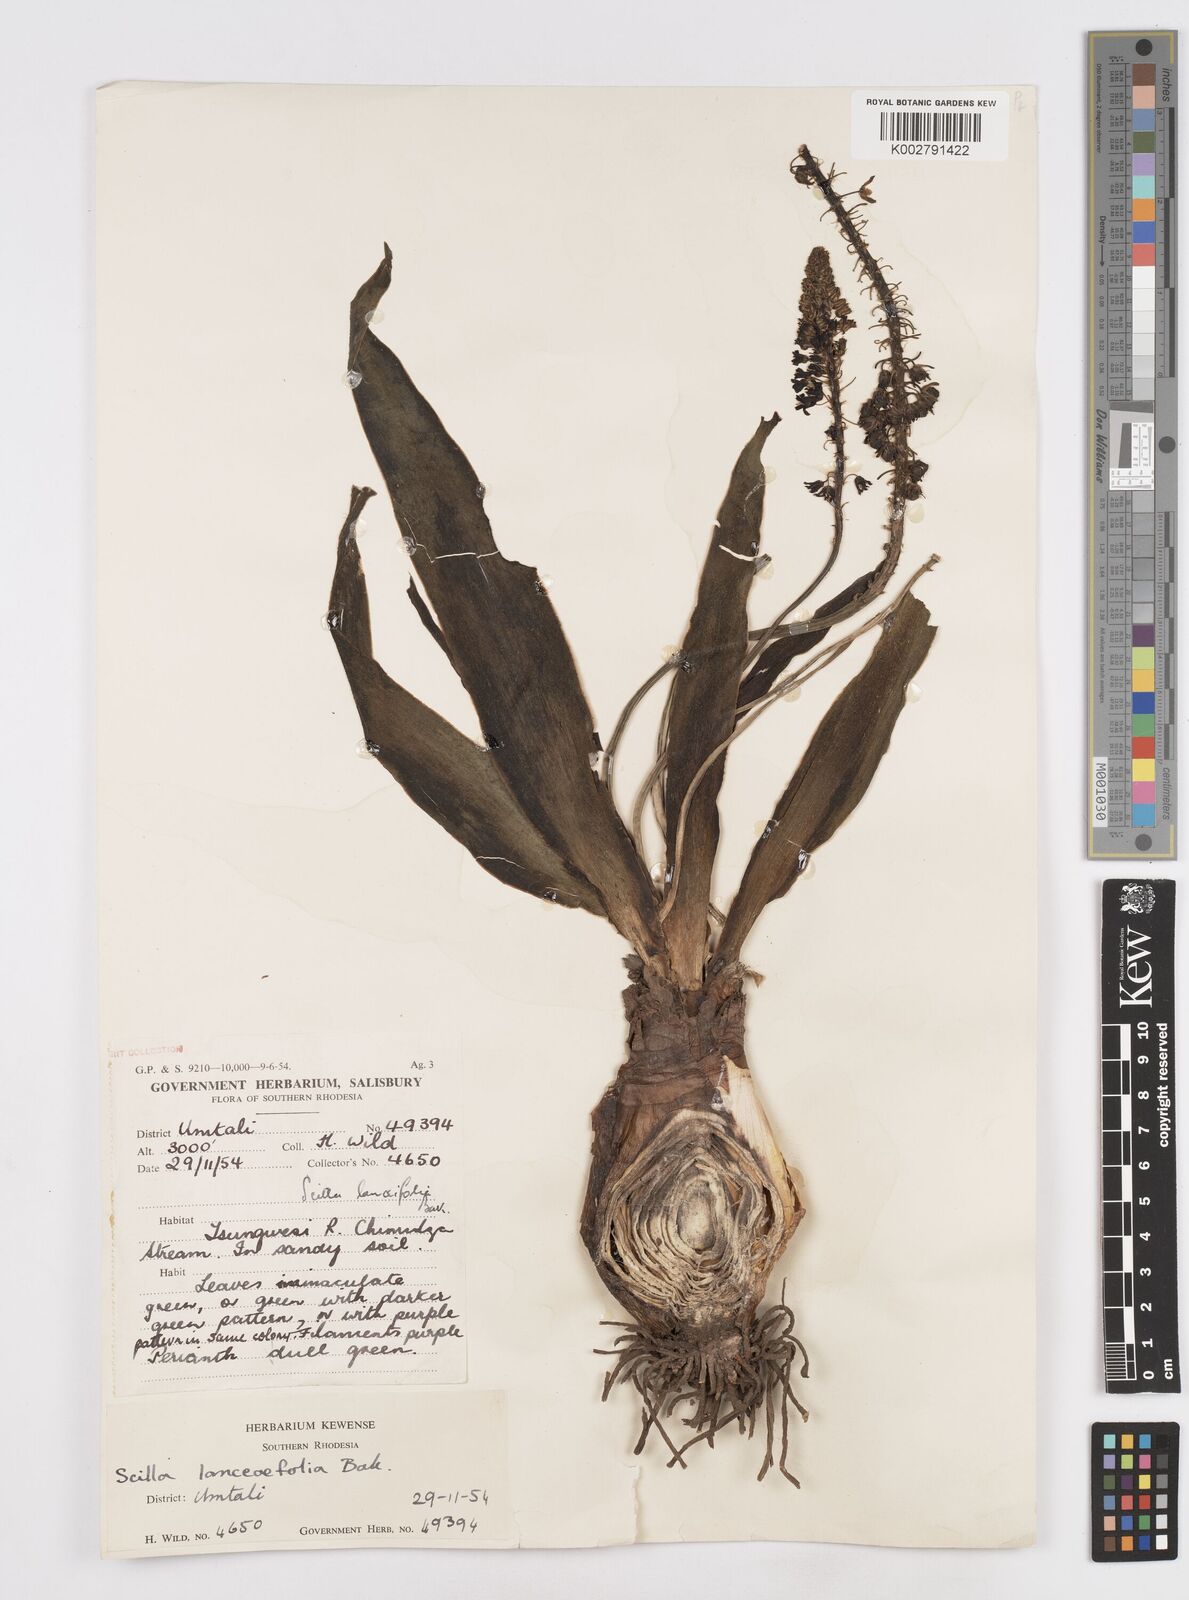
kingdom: Plantae
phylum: Tracheophyta
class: Liliopsida
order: Asparagales
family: Asparagaceae
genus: Ledebouria
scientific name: Ledebouria revoluta
